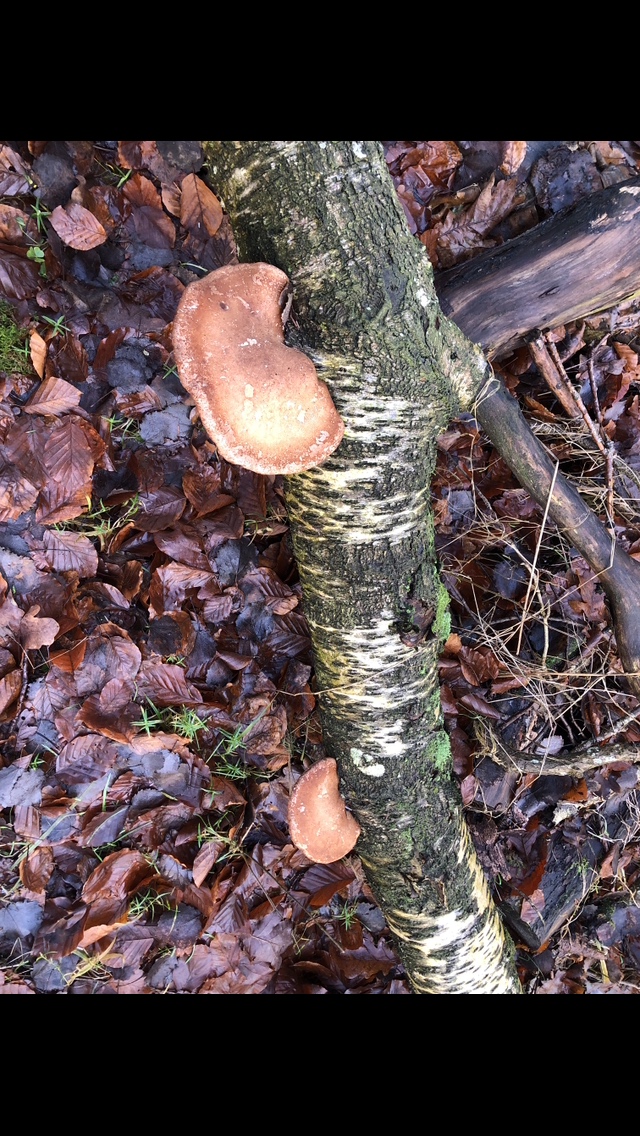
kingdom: Fungi
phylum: Basidiomycota
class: Agaricomycetes
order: Polyporales
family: Fomitopsidaceae
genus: Fomitopsis
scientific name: Fomitopsis betulina
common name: birkeporesvamp
